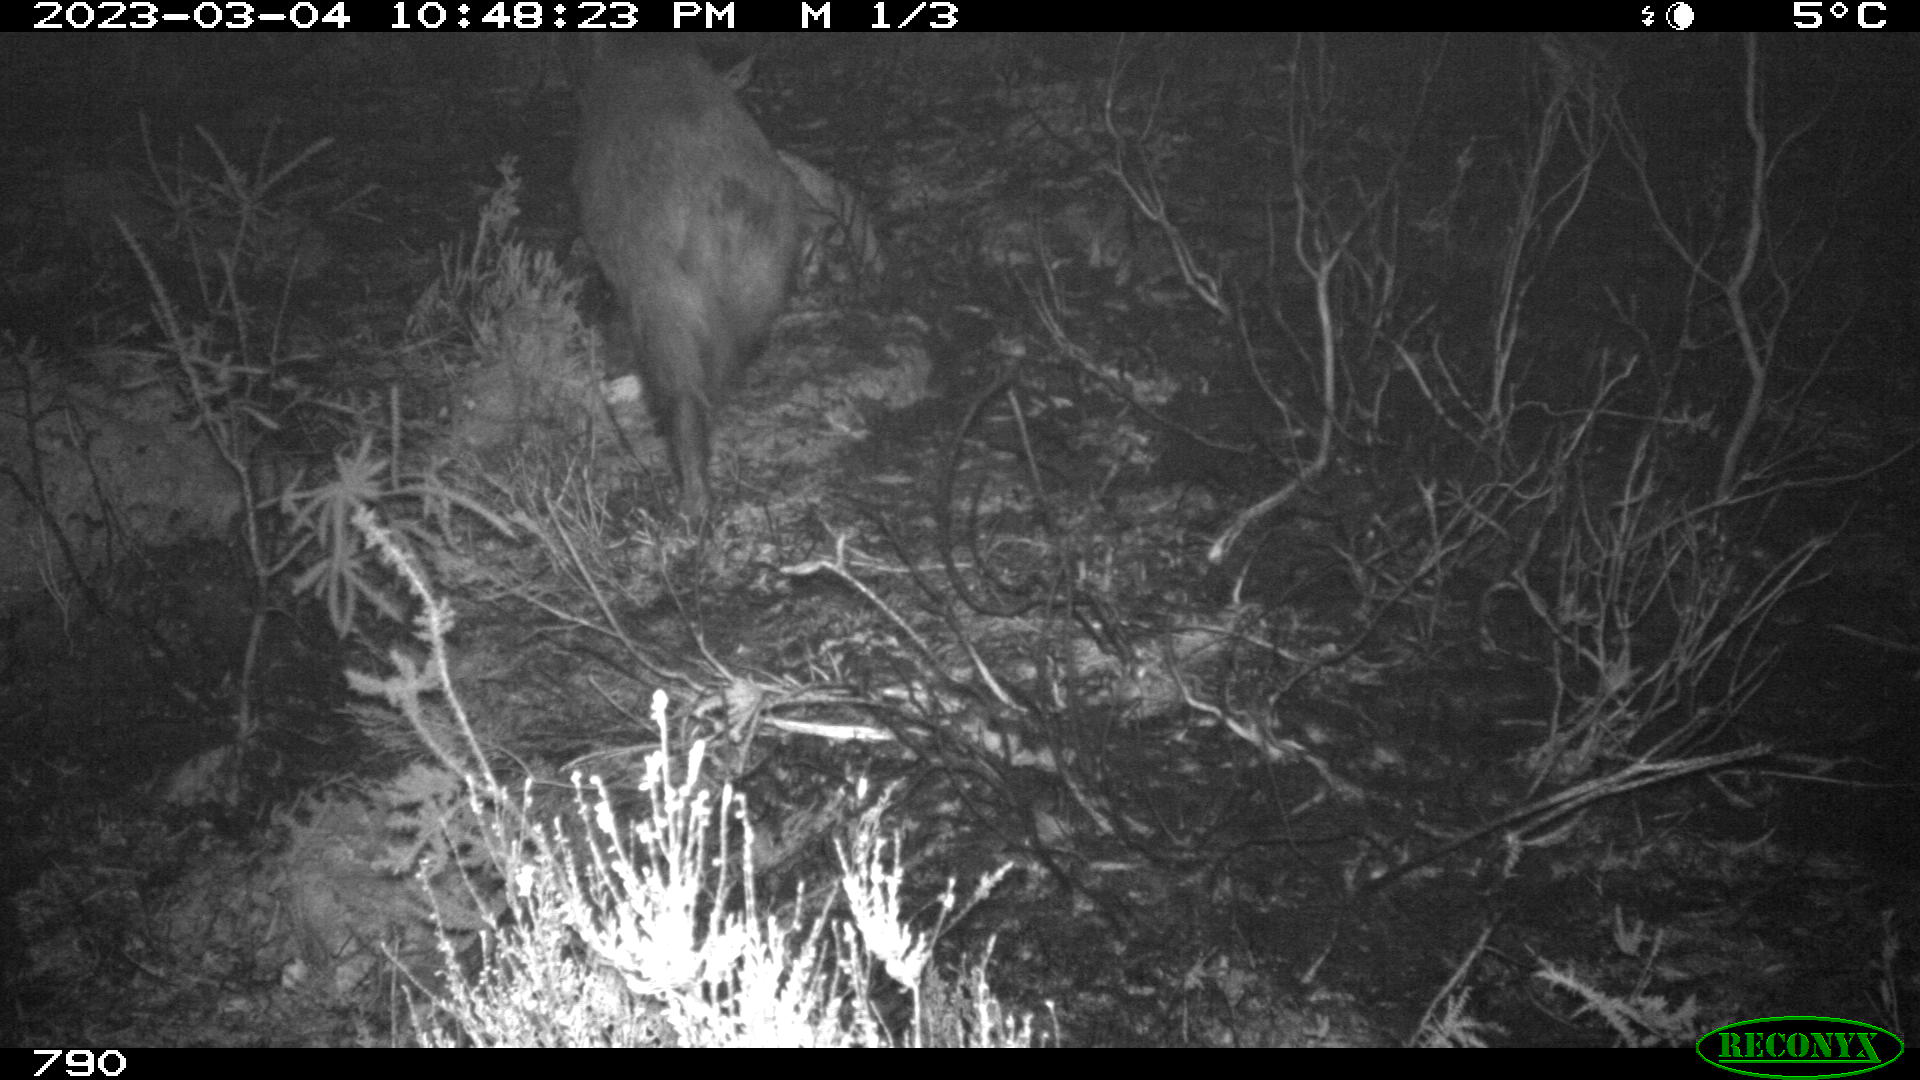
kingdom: Animalia
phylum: Chordata
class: Mammalia
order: Artiodactyla
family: Suidae
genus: Sus
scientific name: Sus scrofa
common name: Wild boar
